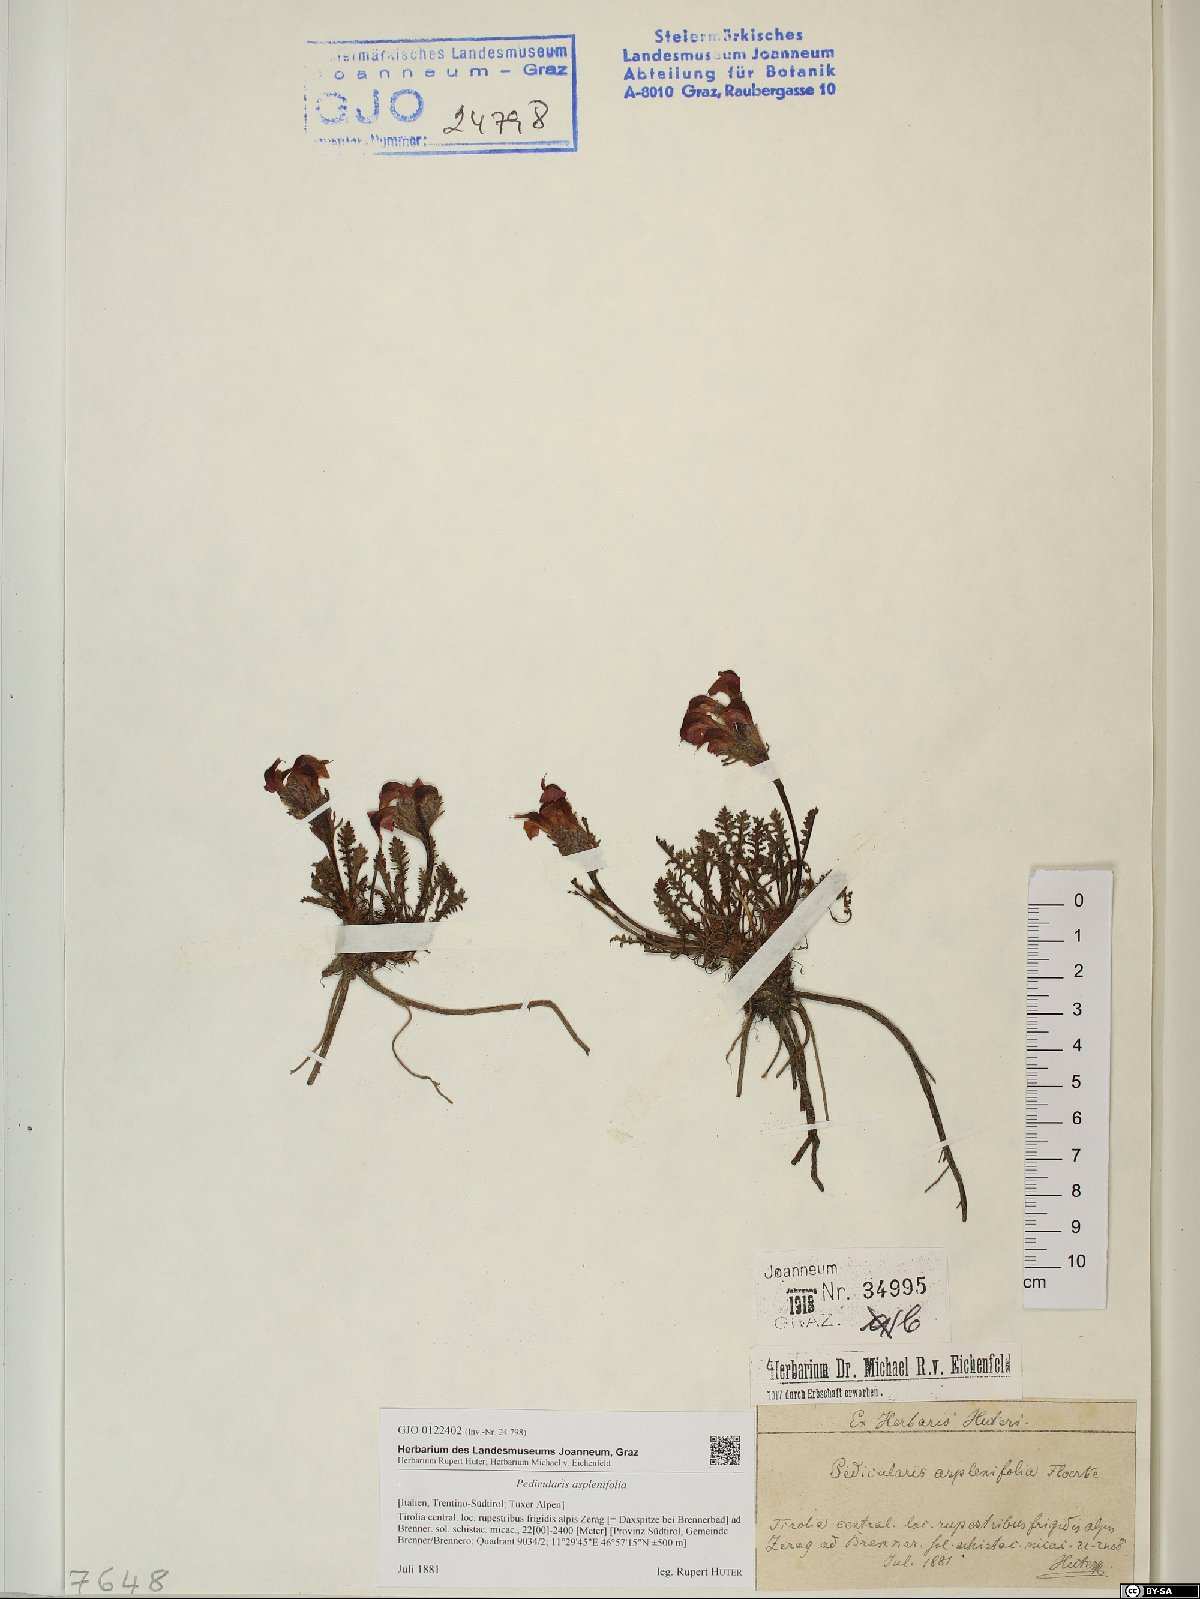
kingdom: Plantae
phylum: Tracheophyta
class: Magnoliopsida
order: Lamiales
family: Orobanchaceae
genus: Pedicularis
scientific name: Pedicularis asplenifolia
